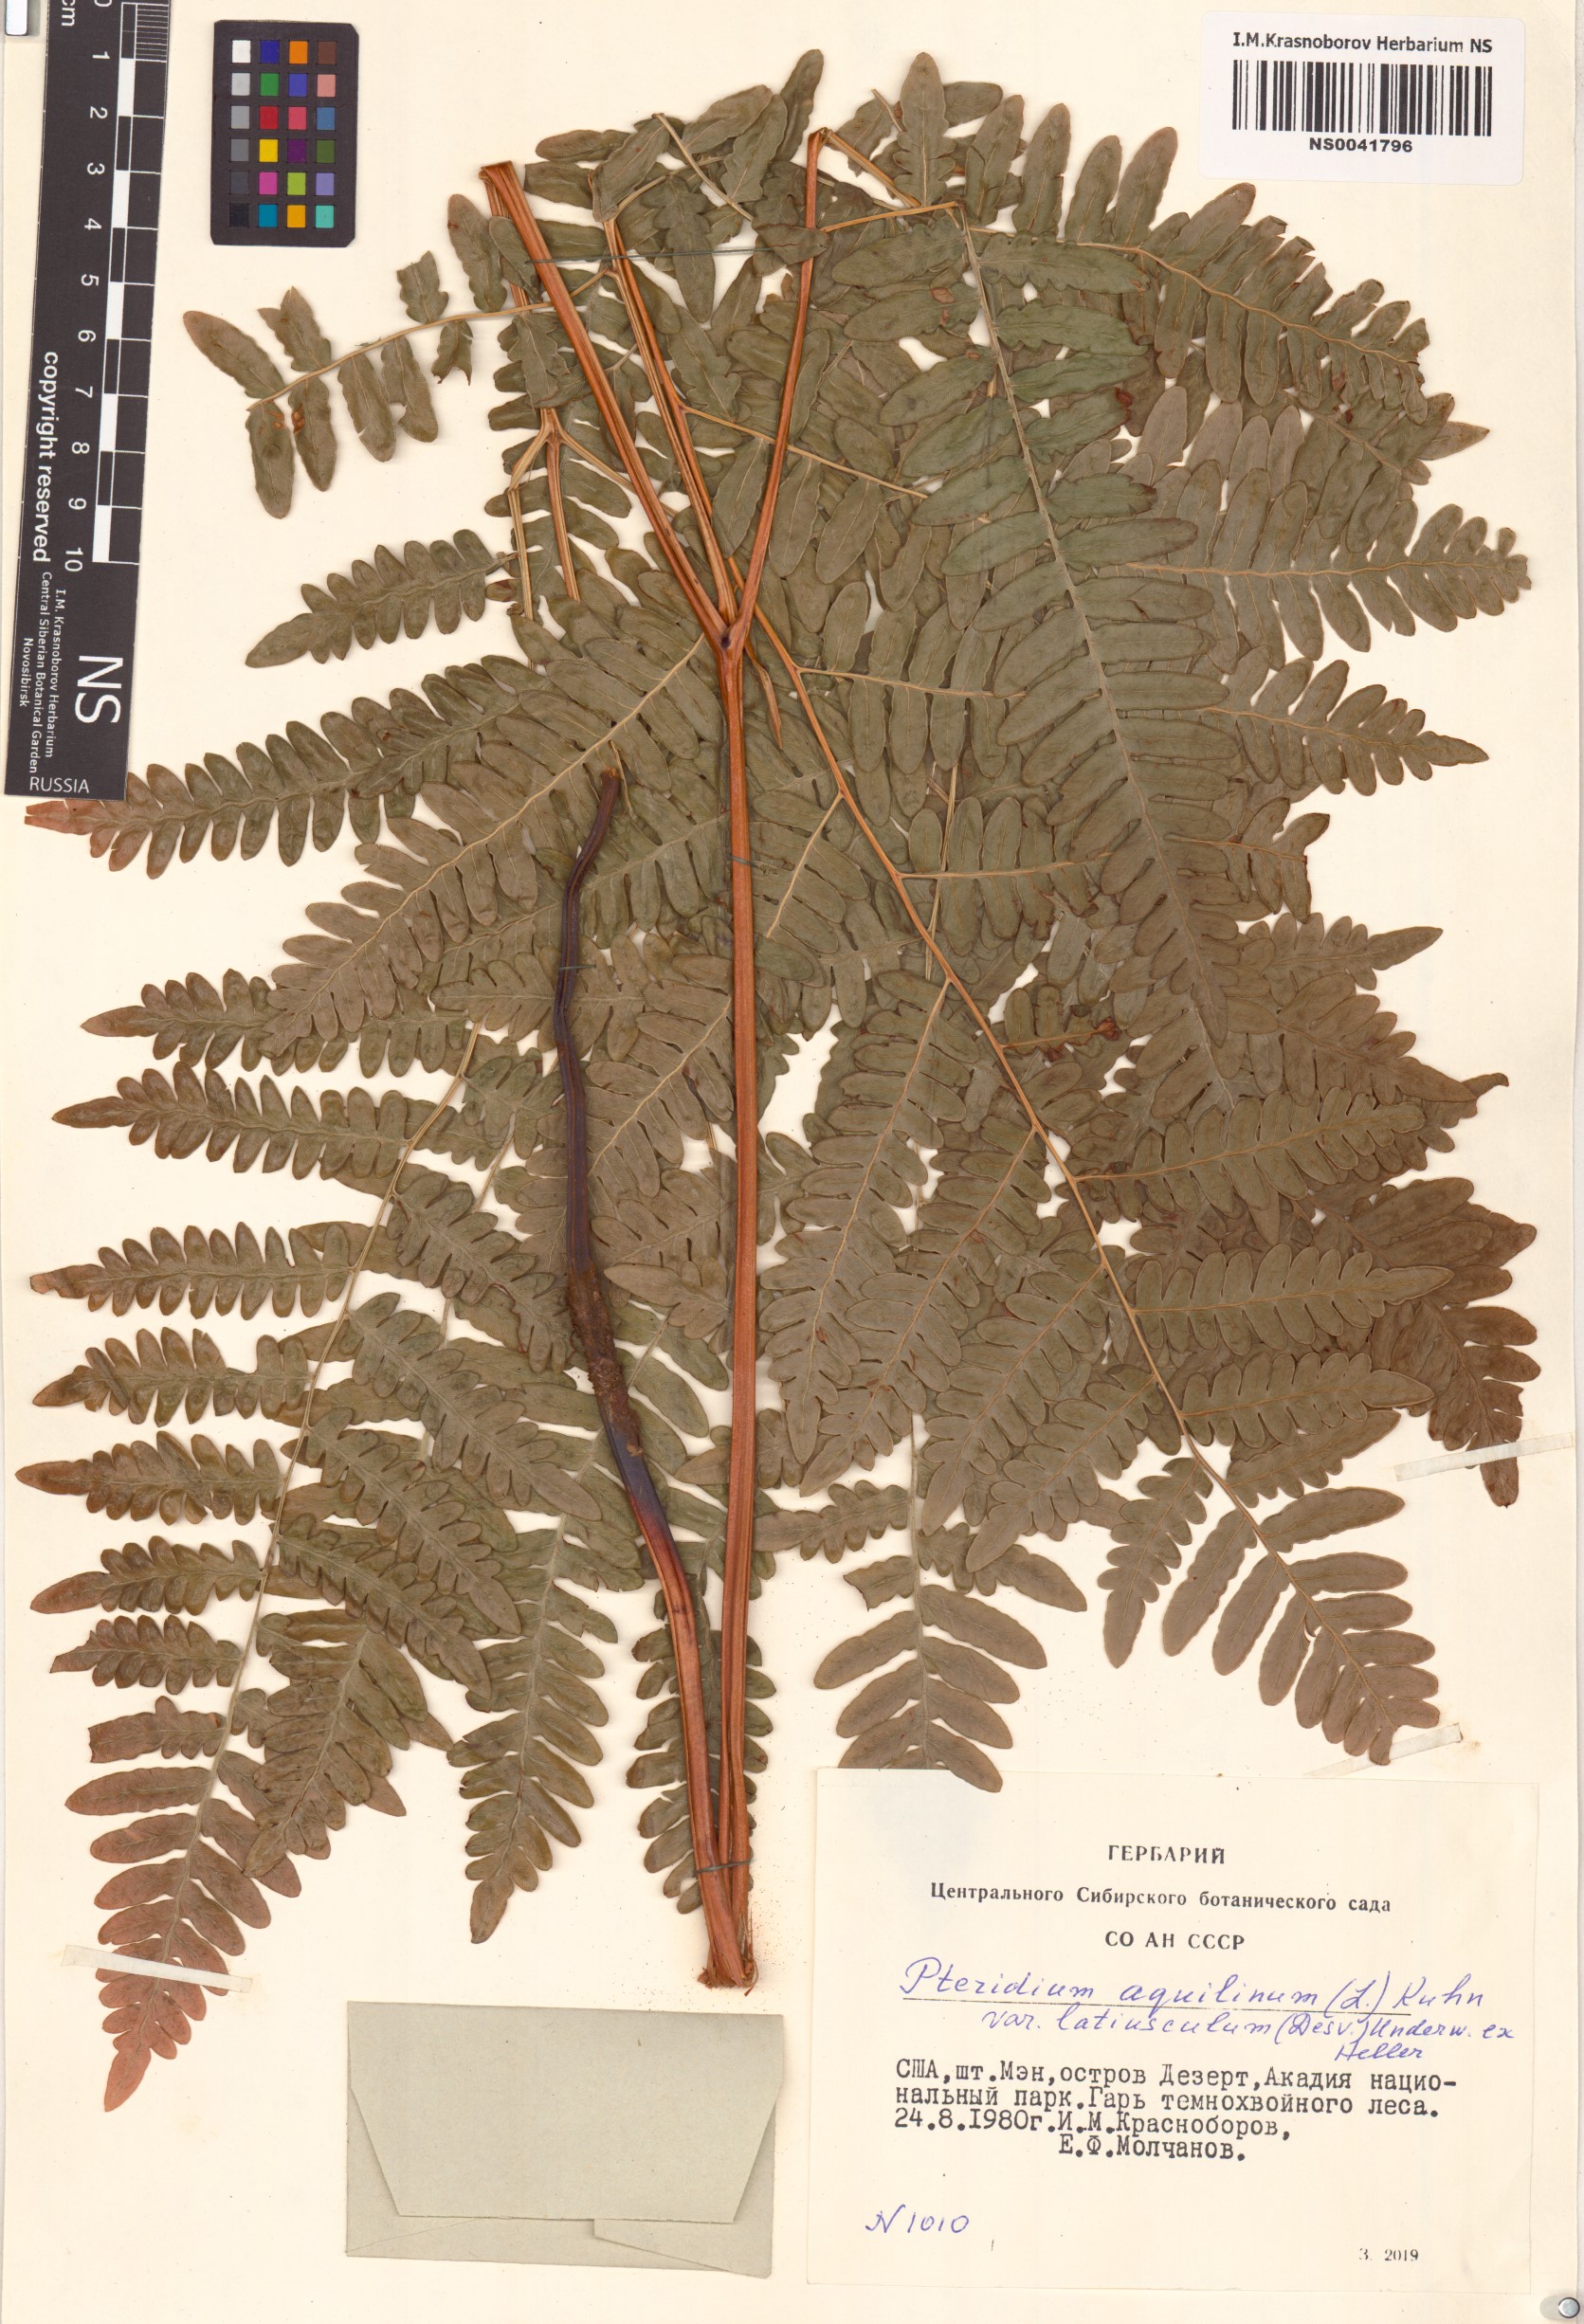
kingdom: Plantae
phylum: Tracheophyta
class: Polypodiopsida
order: Polypodiales
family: Dennstaedtiaceae
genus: Pteridium
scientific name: Pteridium aquilinum
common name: Bracken
